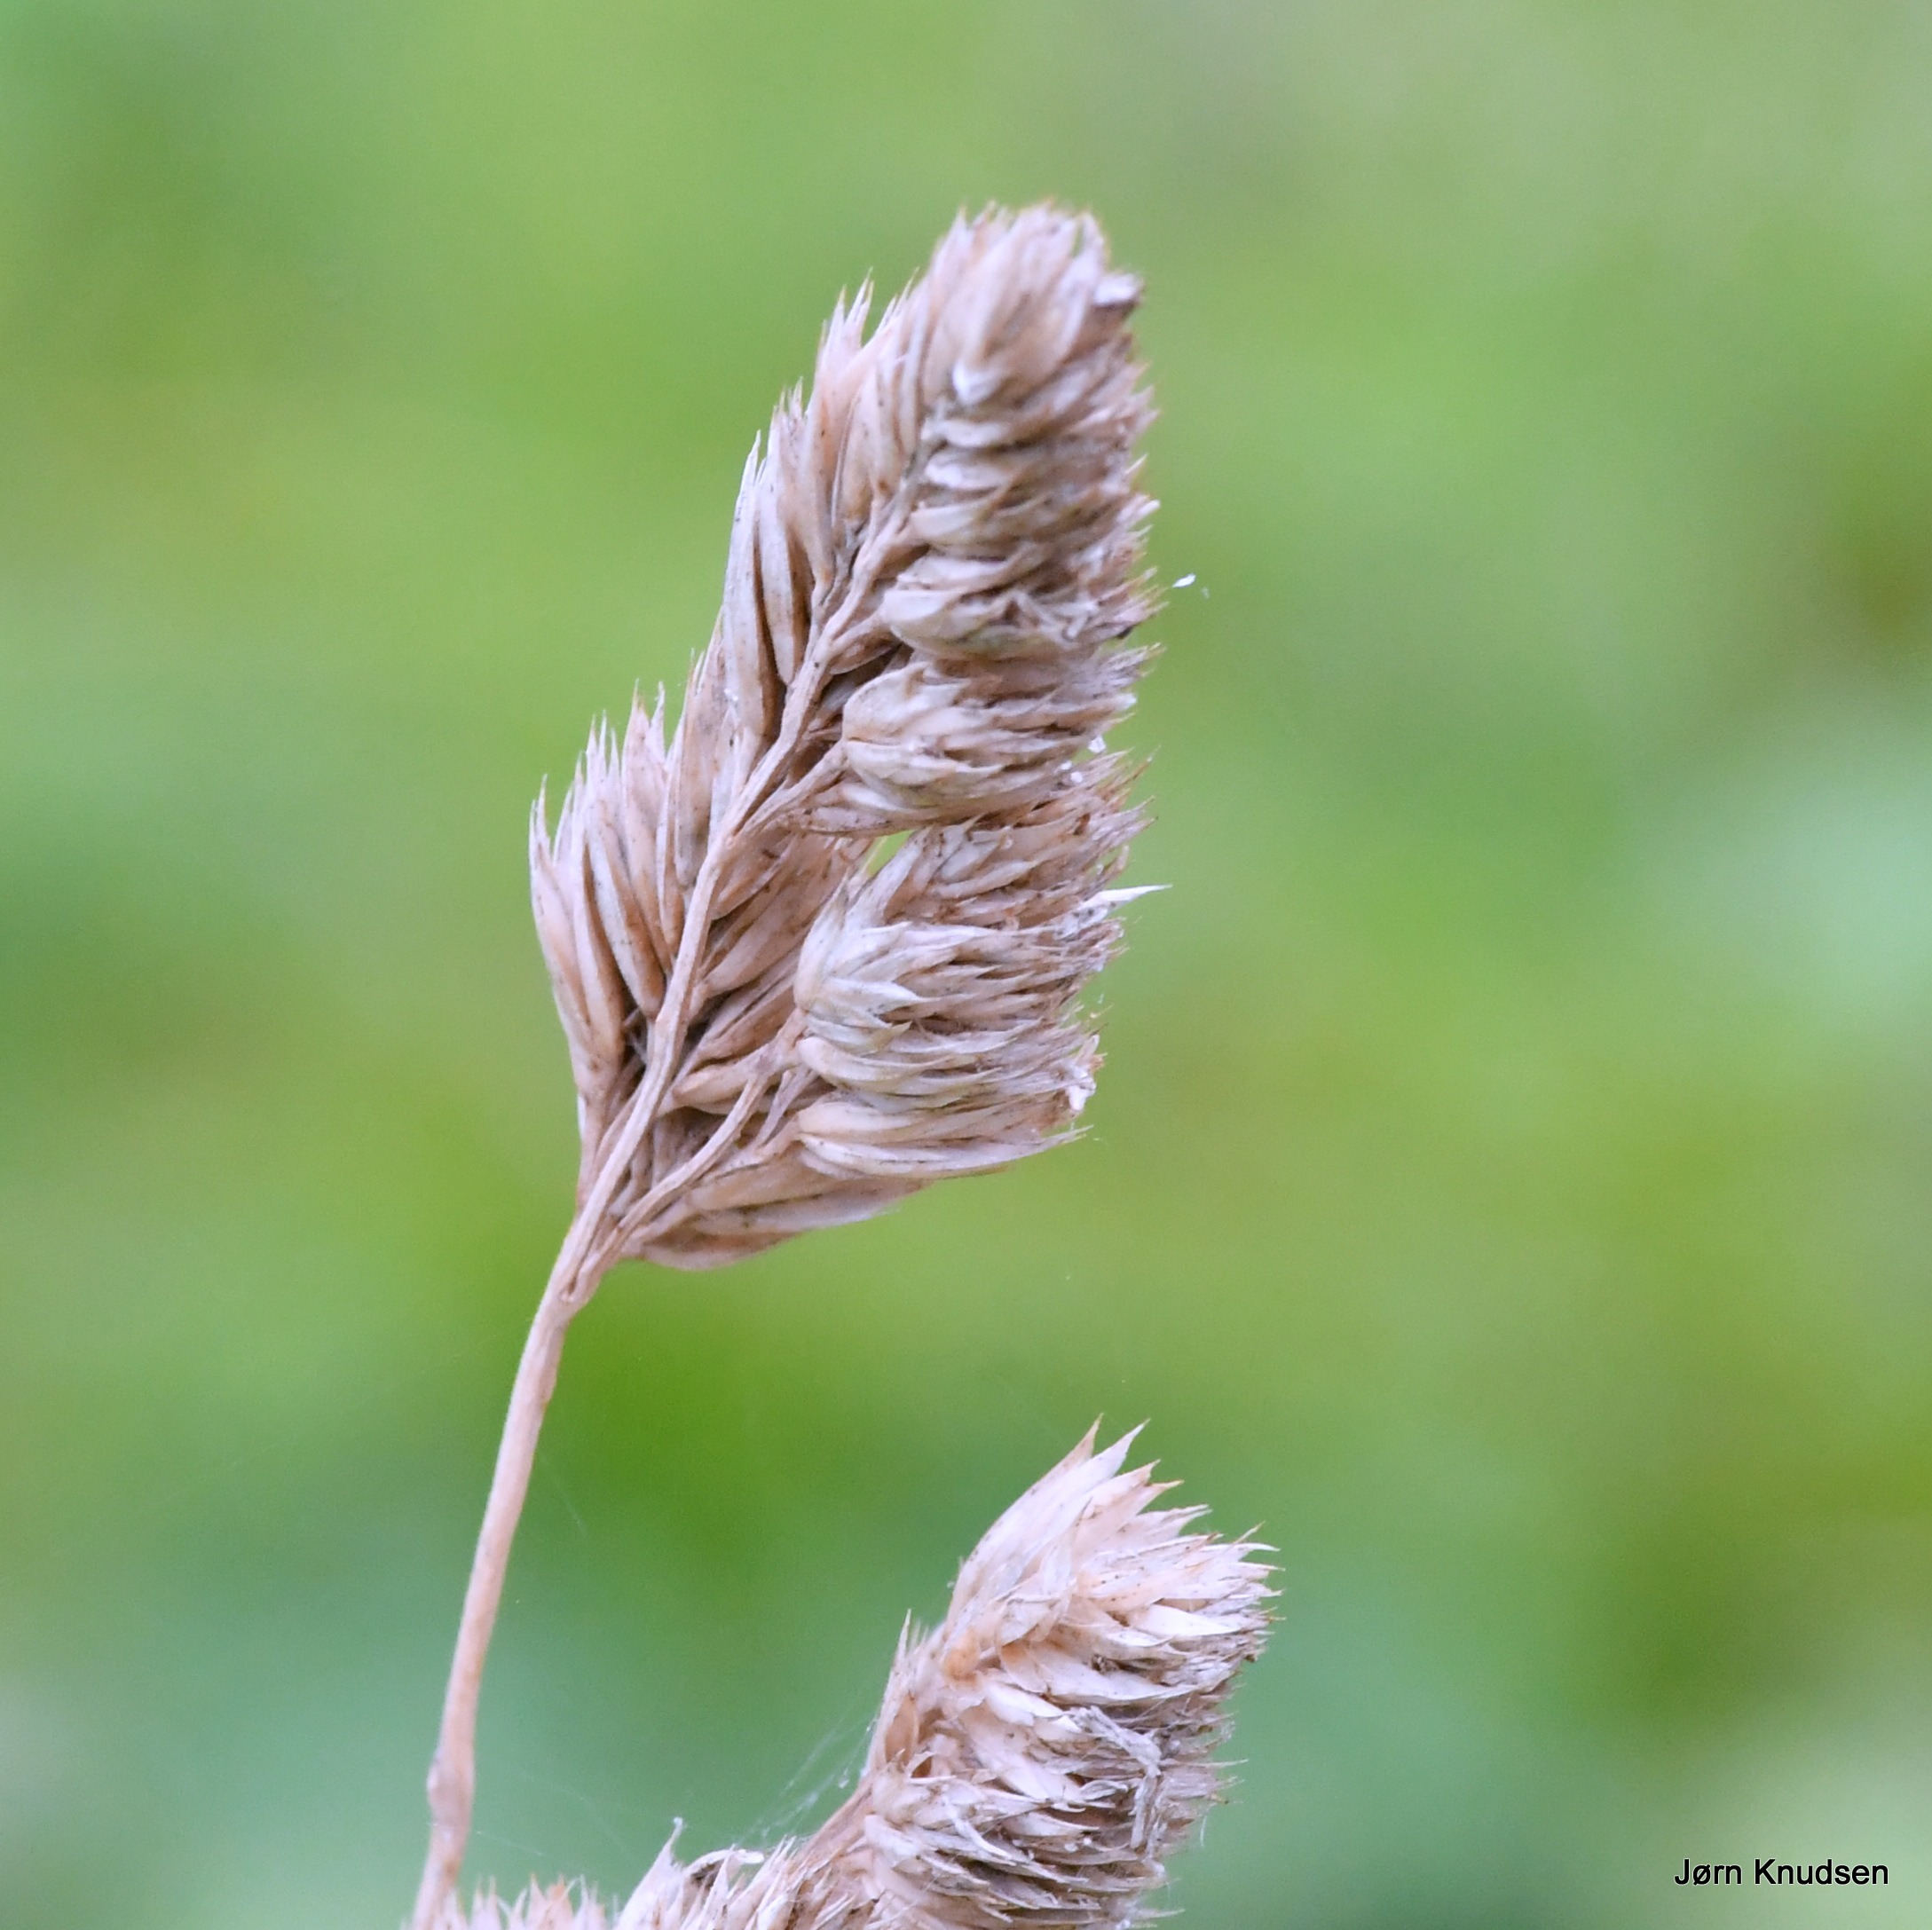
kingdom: Plantae
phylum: Tracheophyta
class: Liliopsida
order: Poales
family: Poaceae
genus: Dactylis
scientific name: Dactylis glomerata
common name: Almindelig hundegræs
